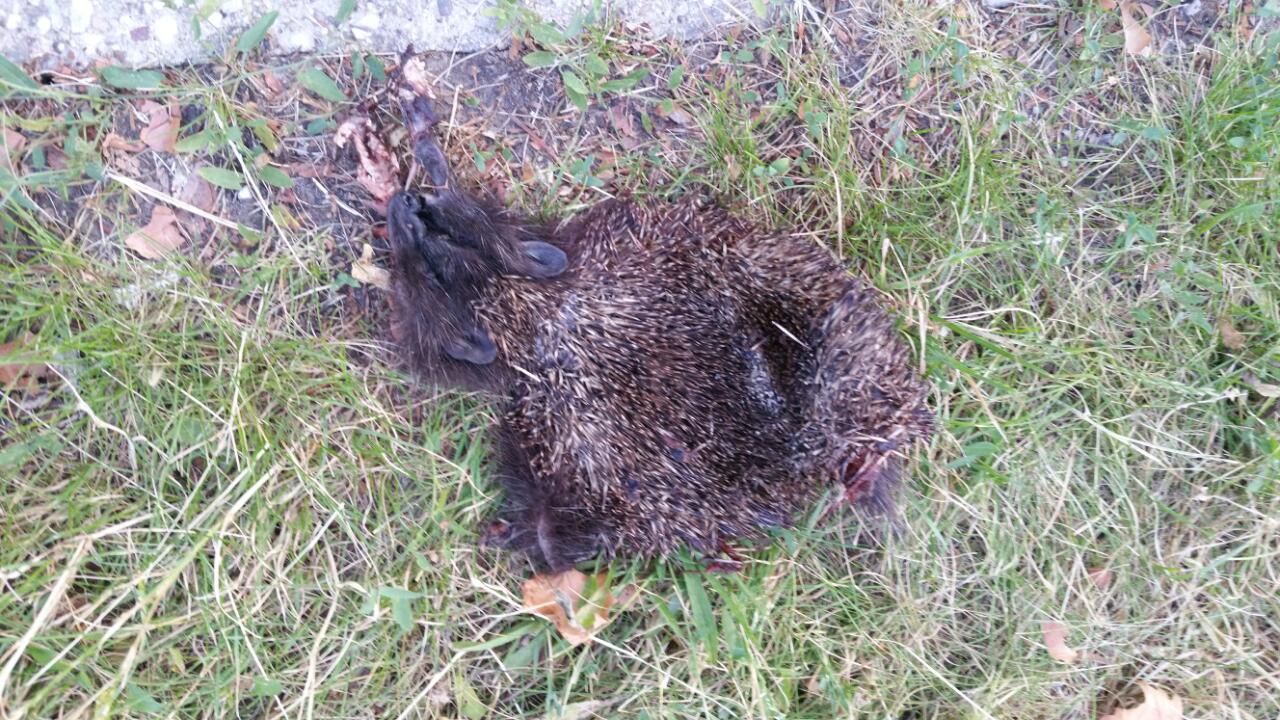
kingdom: Animalia
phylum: Chordata
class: Mammalia
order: Erinaceomorpha
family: Erinaceidae
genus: Erinaceus
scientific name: Erinaceus
